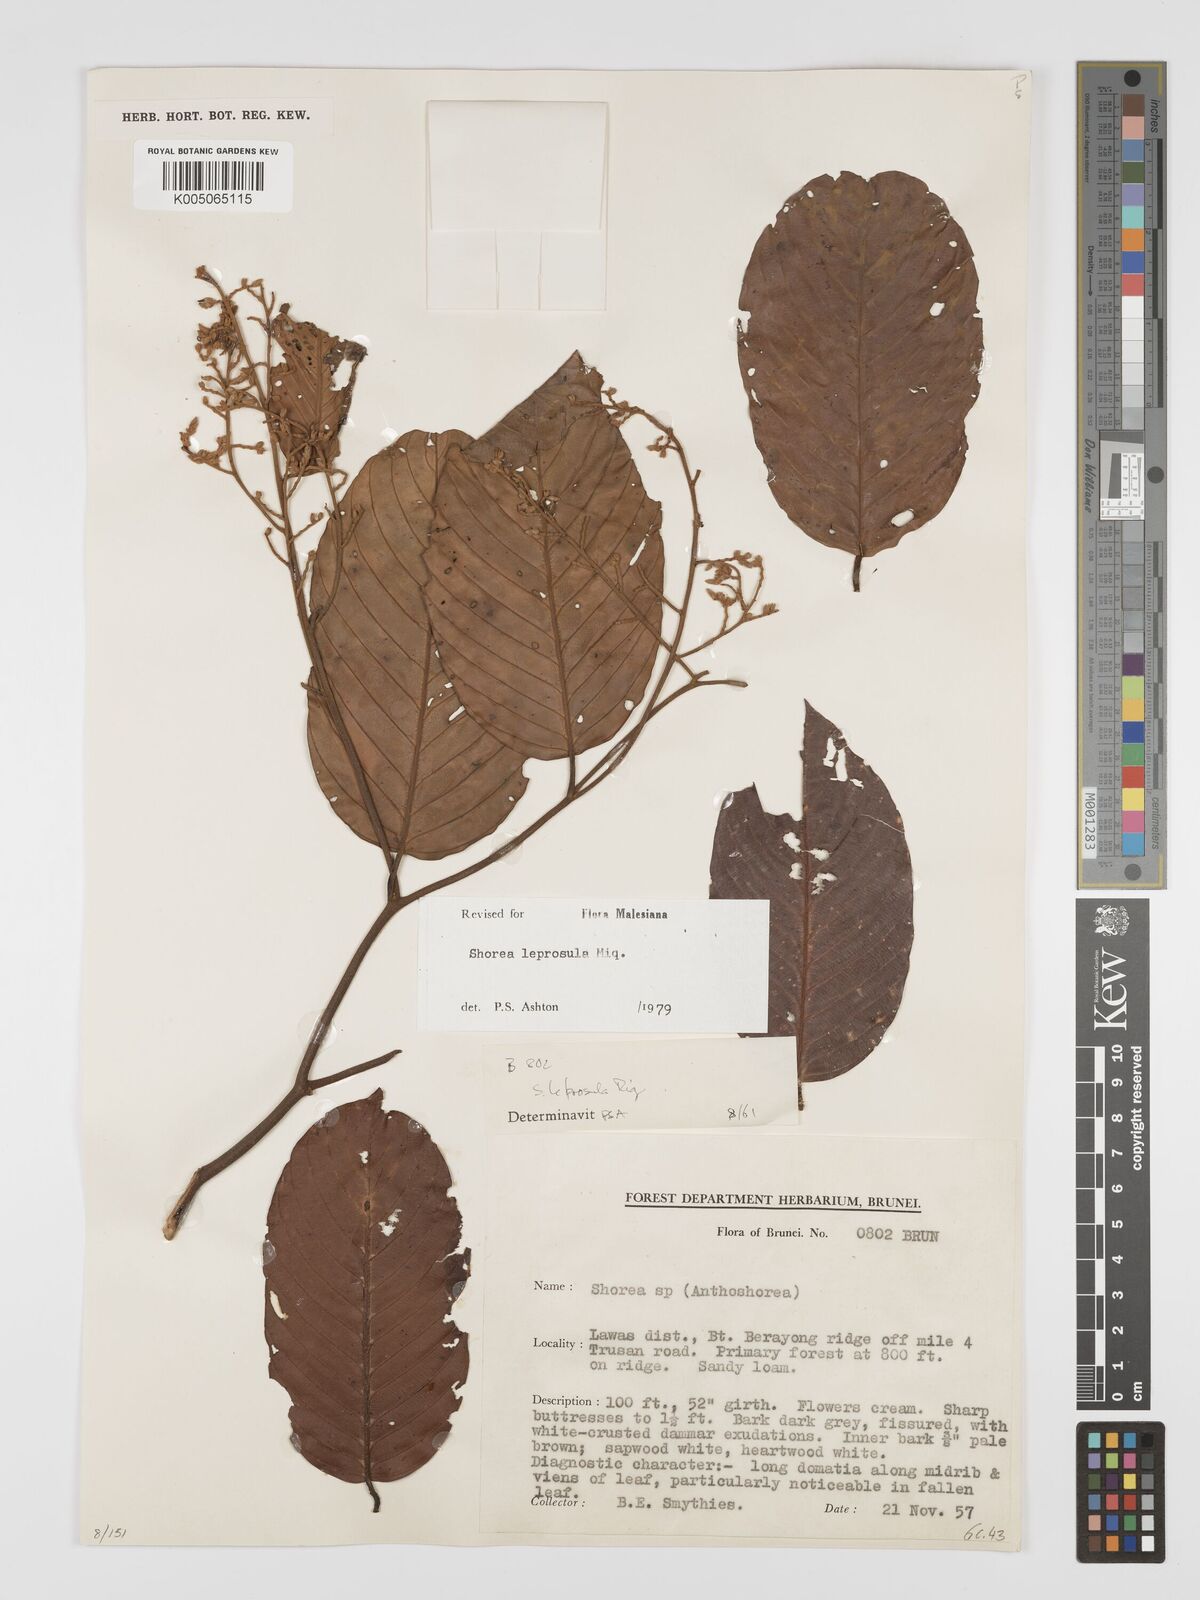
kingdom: Plantae
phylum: Tracheophyta
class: Magnoliopsida
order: Malvales
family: Dipterocarpaceae
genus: Shorea
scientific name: Shorea leprosula
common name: Light red meranti
